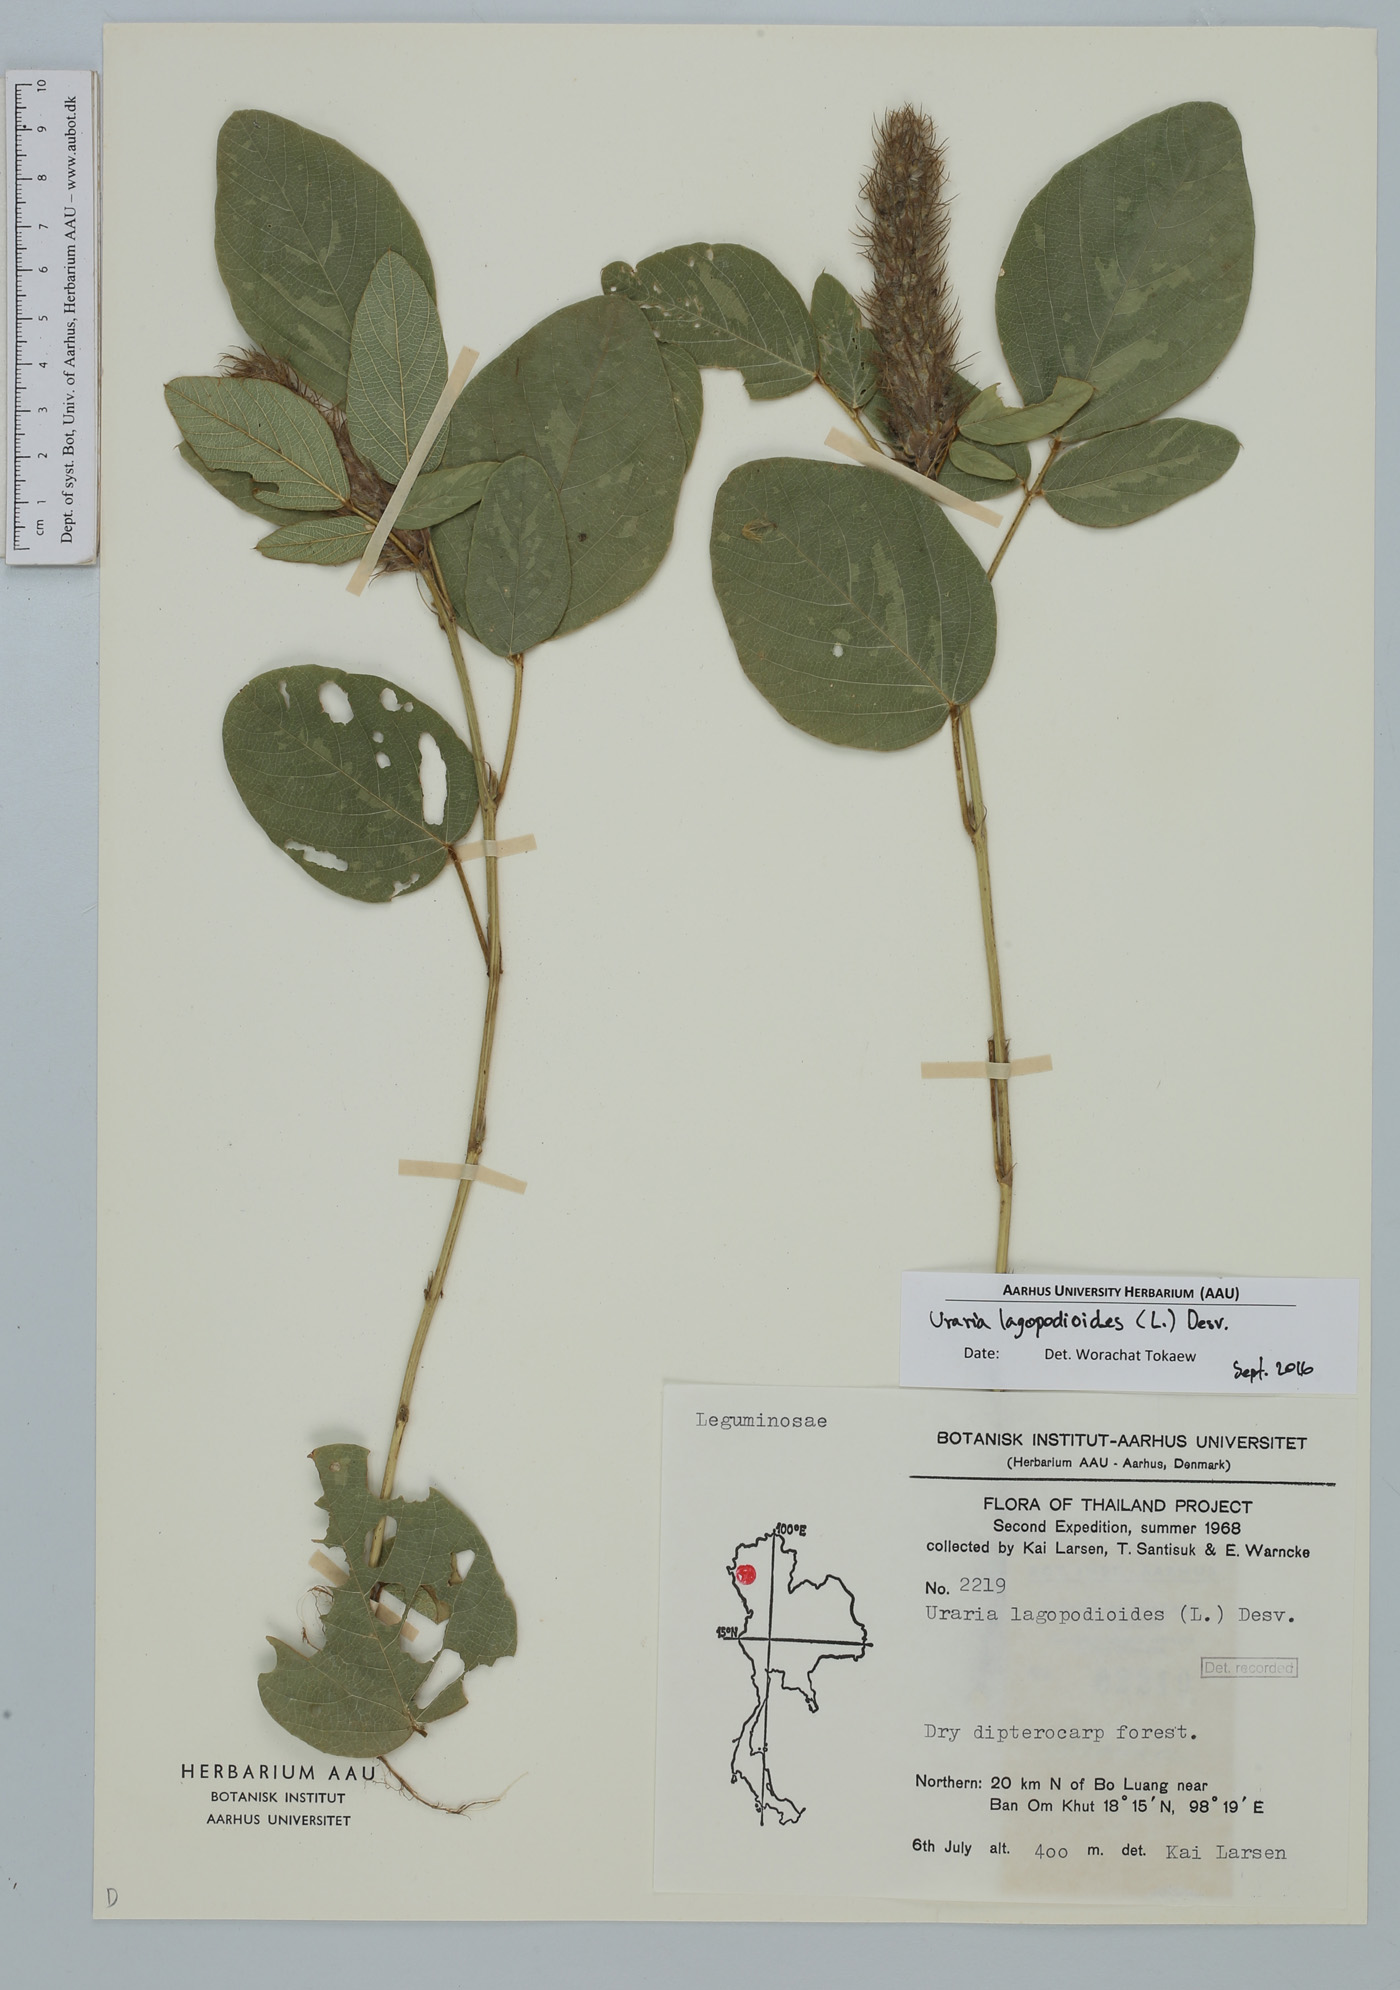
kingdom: Plantae
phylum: Tracheophyta
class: Magnoliopsida
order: Fabales
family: Fabaceae
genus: Uraria
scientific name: Uraria lagopodioides
